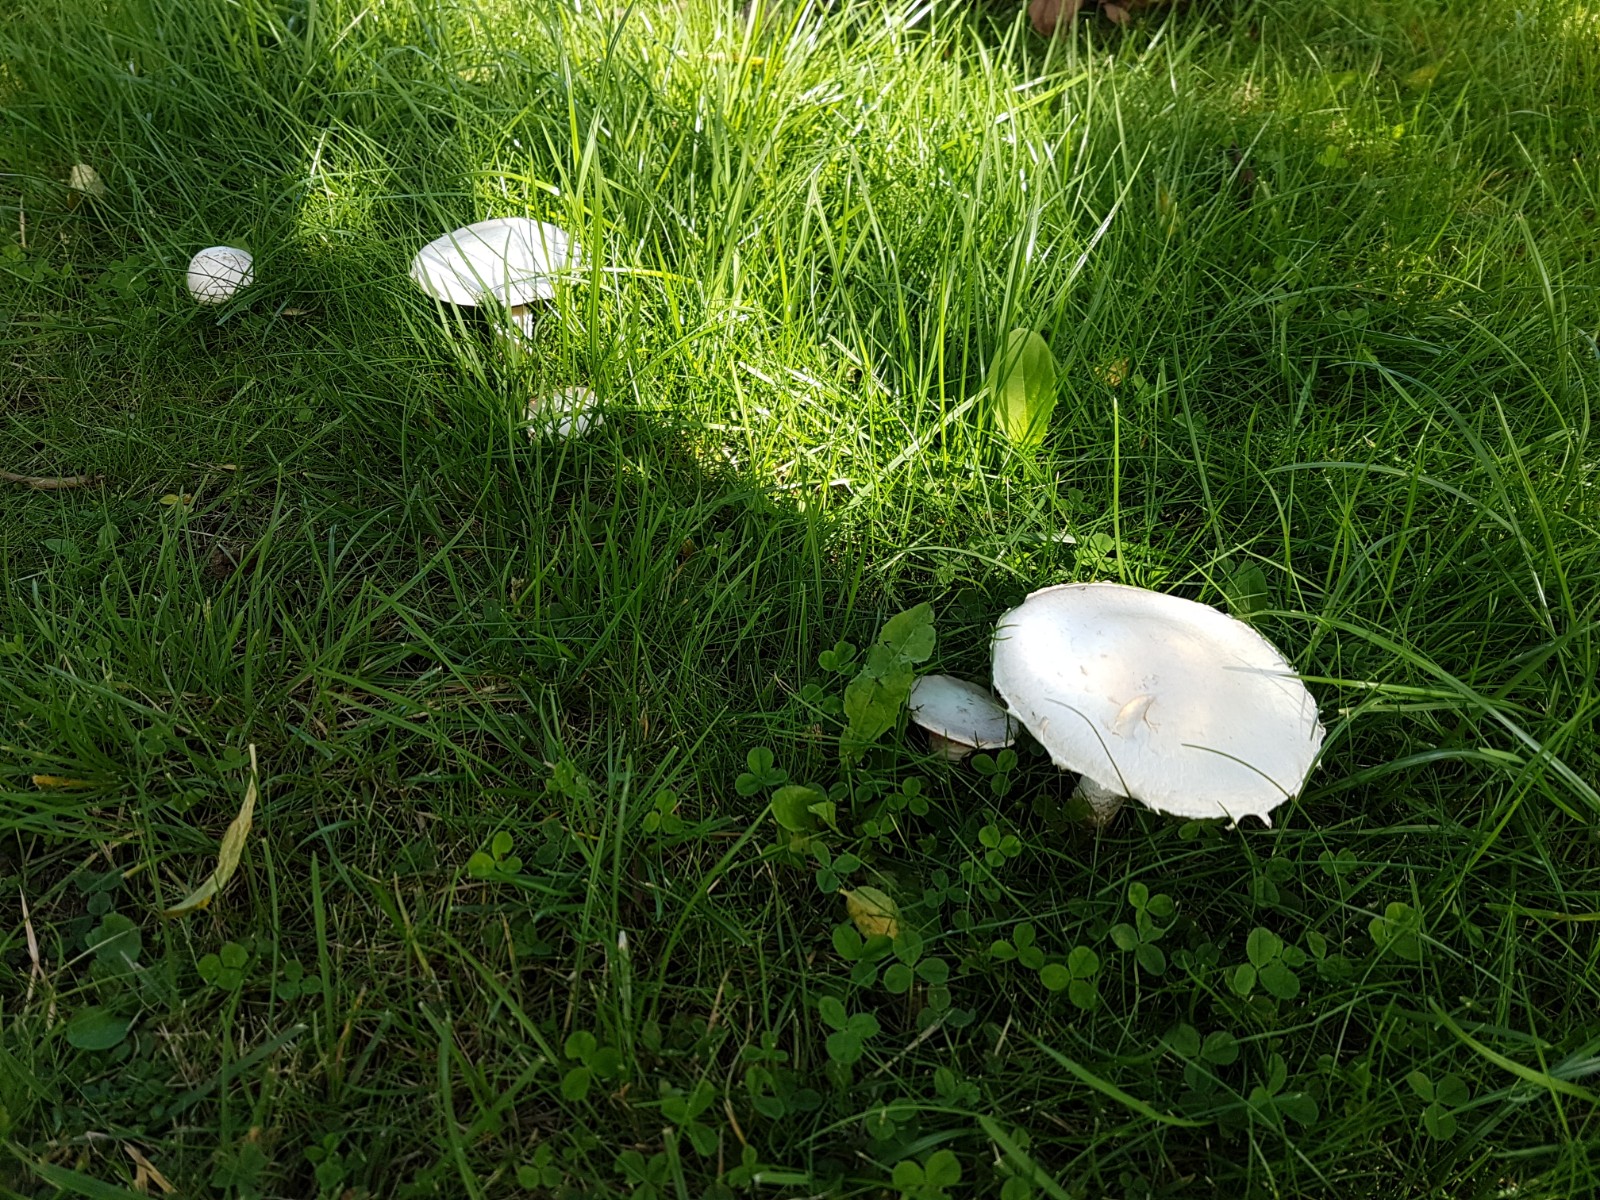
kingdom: Fungi
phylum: Basidiomycota
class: Agaricomycetes
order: Agaricales
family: Agaricaceae
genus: Agaricus
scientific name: Agaricus campestris
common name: mark-champignon
